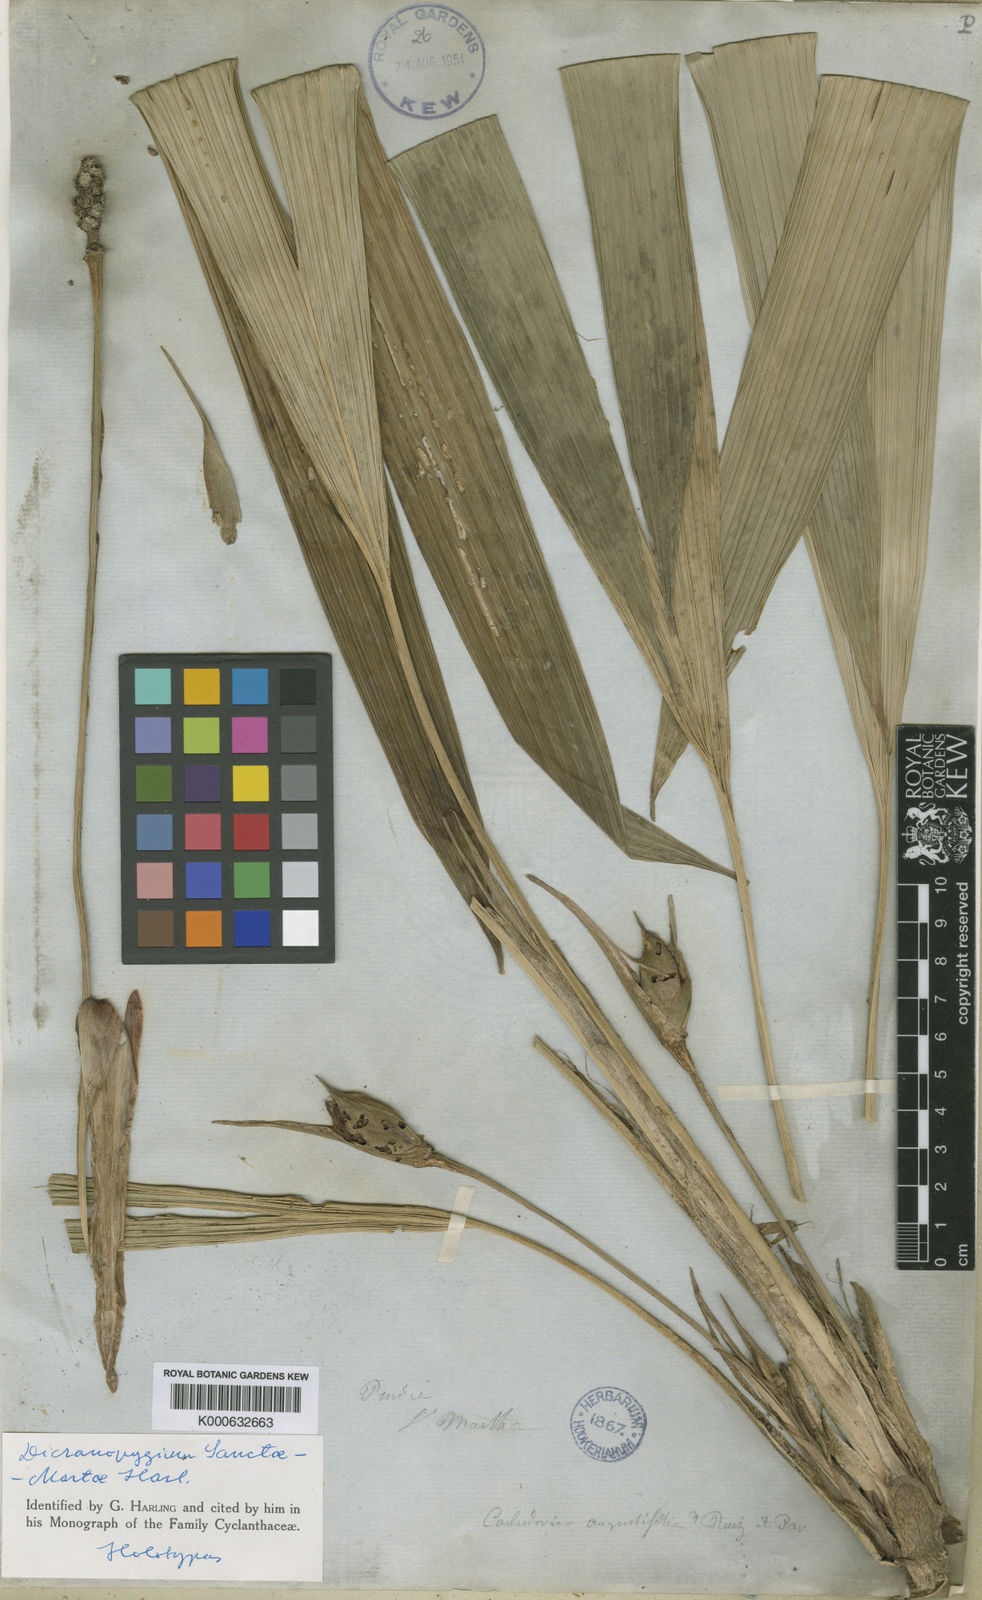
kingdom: Plantae
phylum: Tracheophyta
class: Liliopsida
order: Pandanales
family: Cyclanthaceae
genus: Dicranopygium
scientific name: Dicranopygium sanctae-martae
